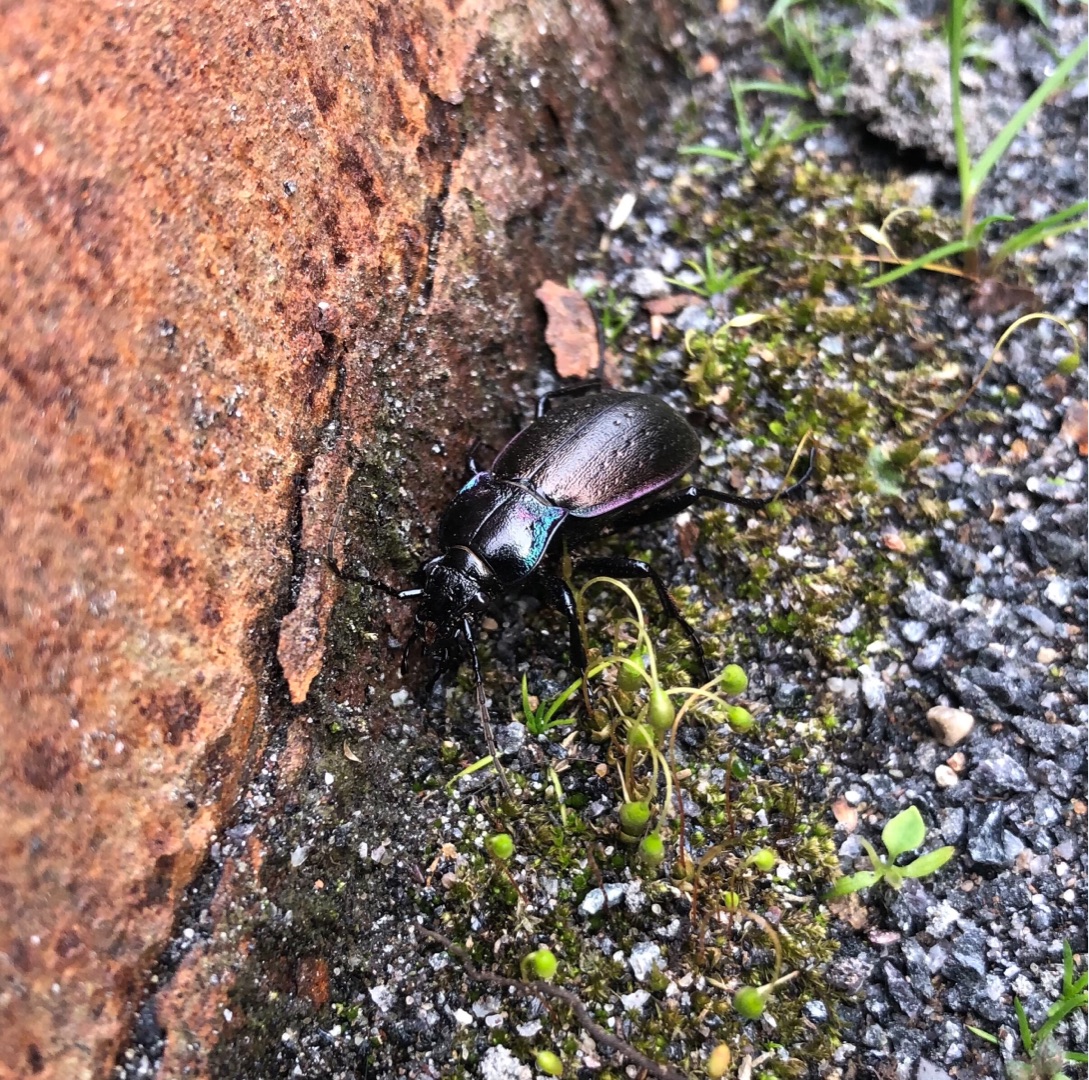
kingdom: Animalia
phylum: Arthropoda
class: Insecta
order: Coleoptera
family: Carabidae
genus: Carabus
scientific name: Carabus nemoralis
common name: Kratløber
